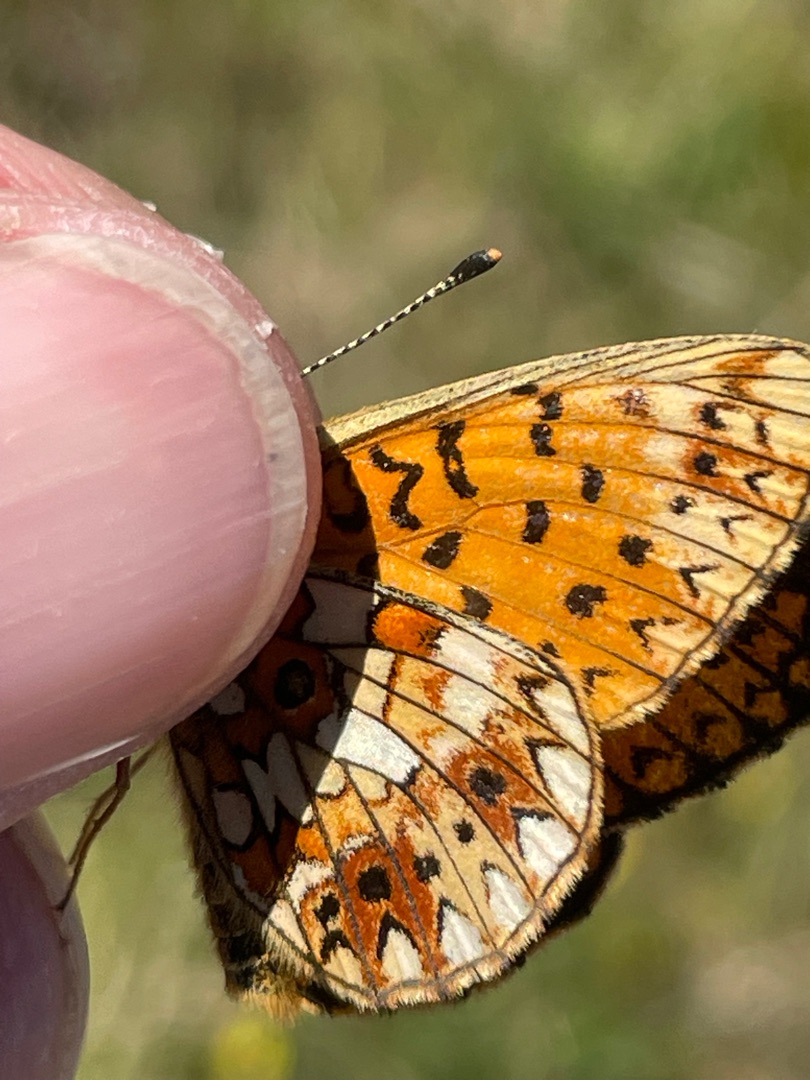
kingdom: Animalia
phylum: Arthropoda
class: Insecta
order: Lepidoptera
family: Nymphalidae
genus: Boloria
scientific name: Boloria selene
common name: Brunlig perlemorsommerfugl
